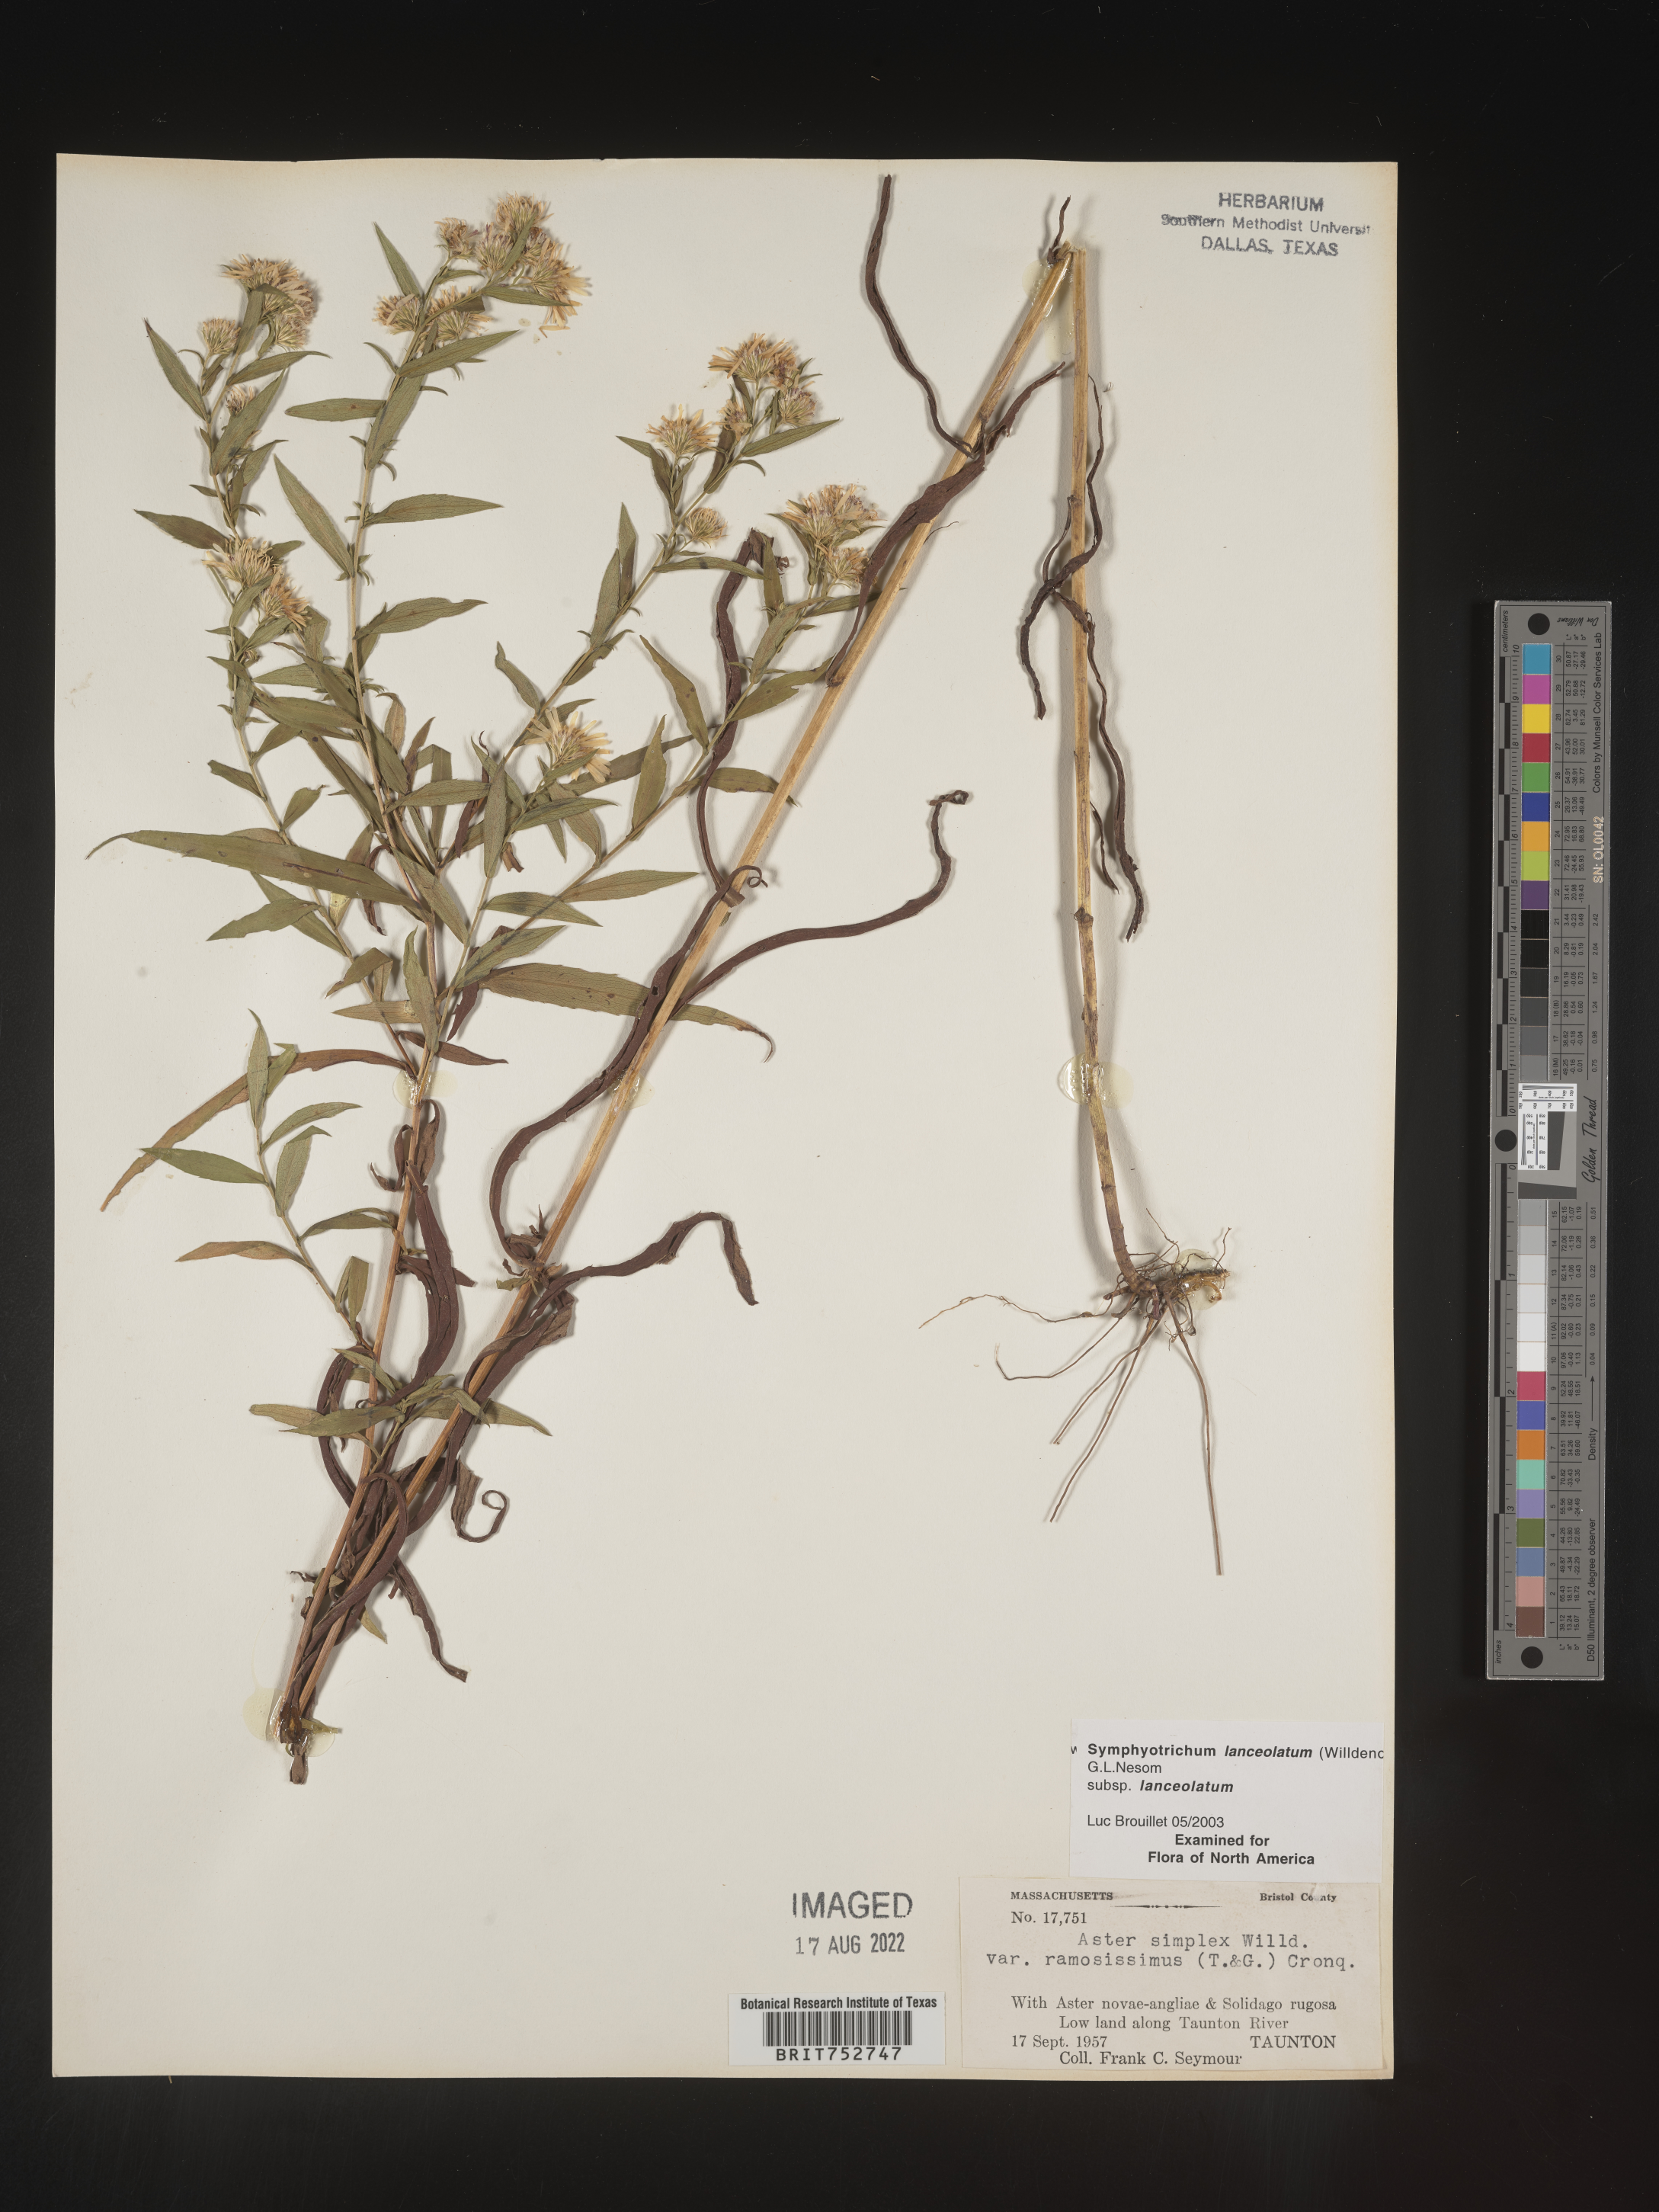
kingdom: Plantae
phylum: Tracheophyta
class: Magnoliopsida
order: Asterales
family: Asteraceae
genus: Symphyotrichum
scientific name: Symphyotrichum lanceolatum
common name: Panicled aster
